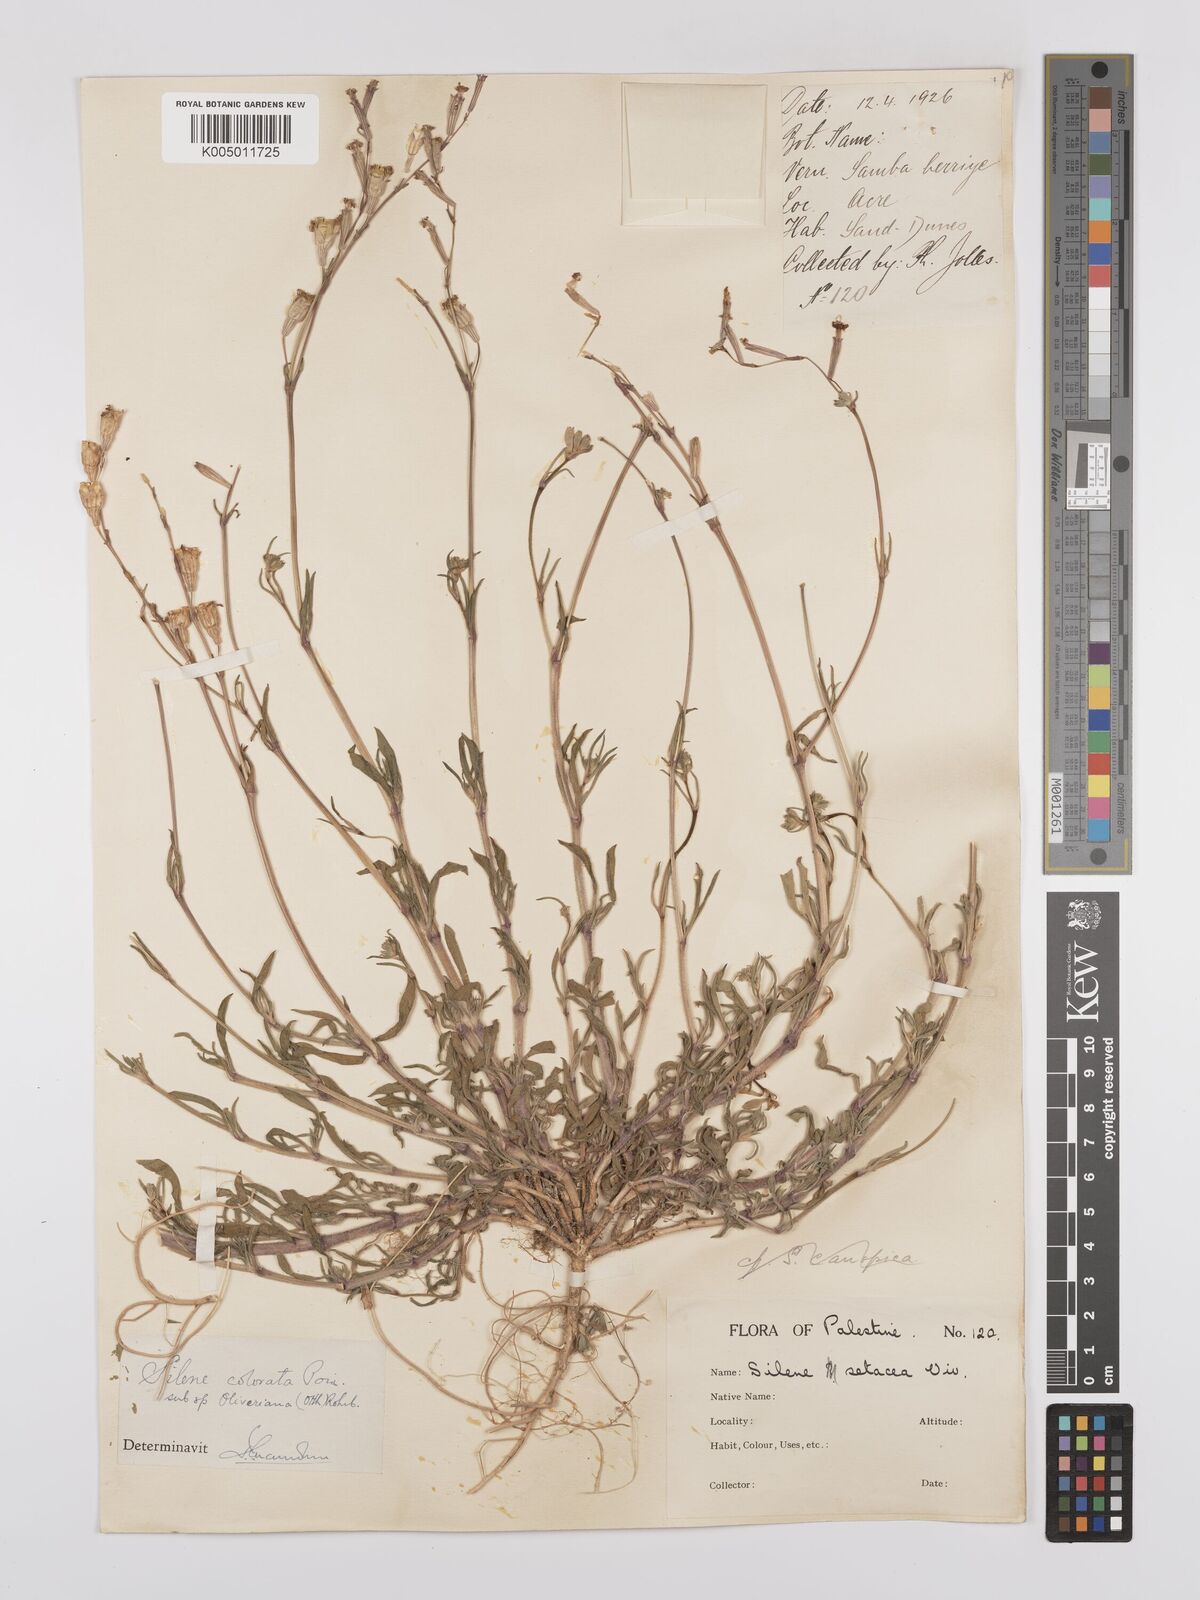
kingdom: Plantae
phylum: Tracheophyta
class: Magnoliopsida
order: Caryophyllales
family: Caryophyllaceae
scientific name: Caryophyllaceae
